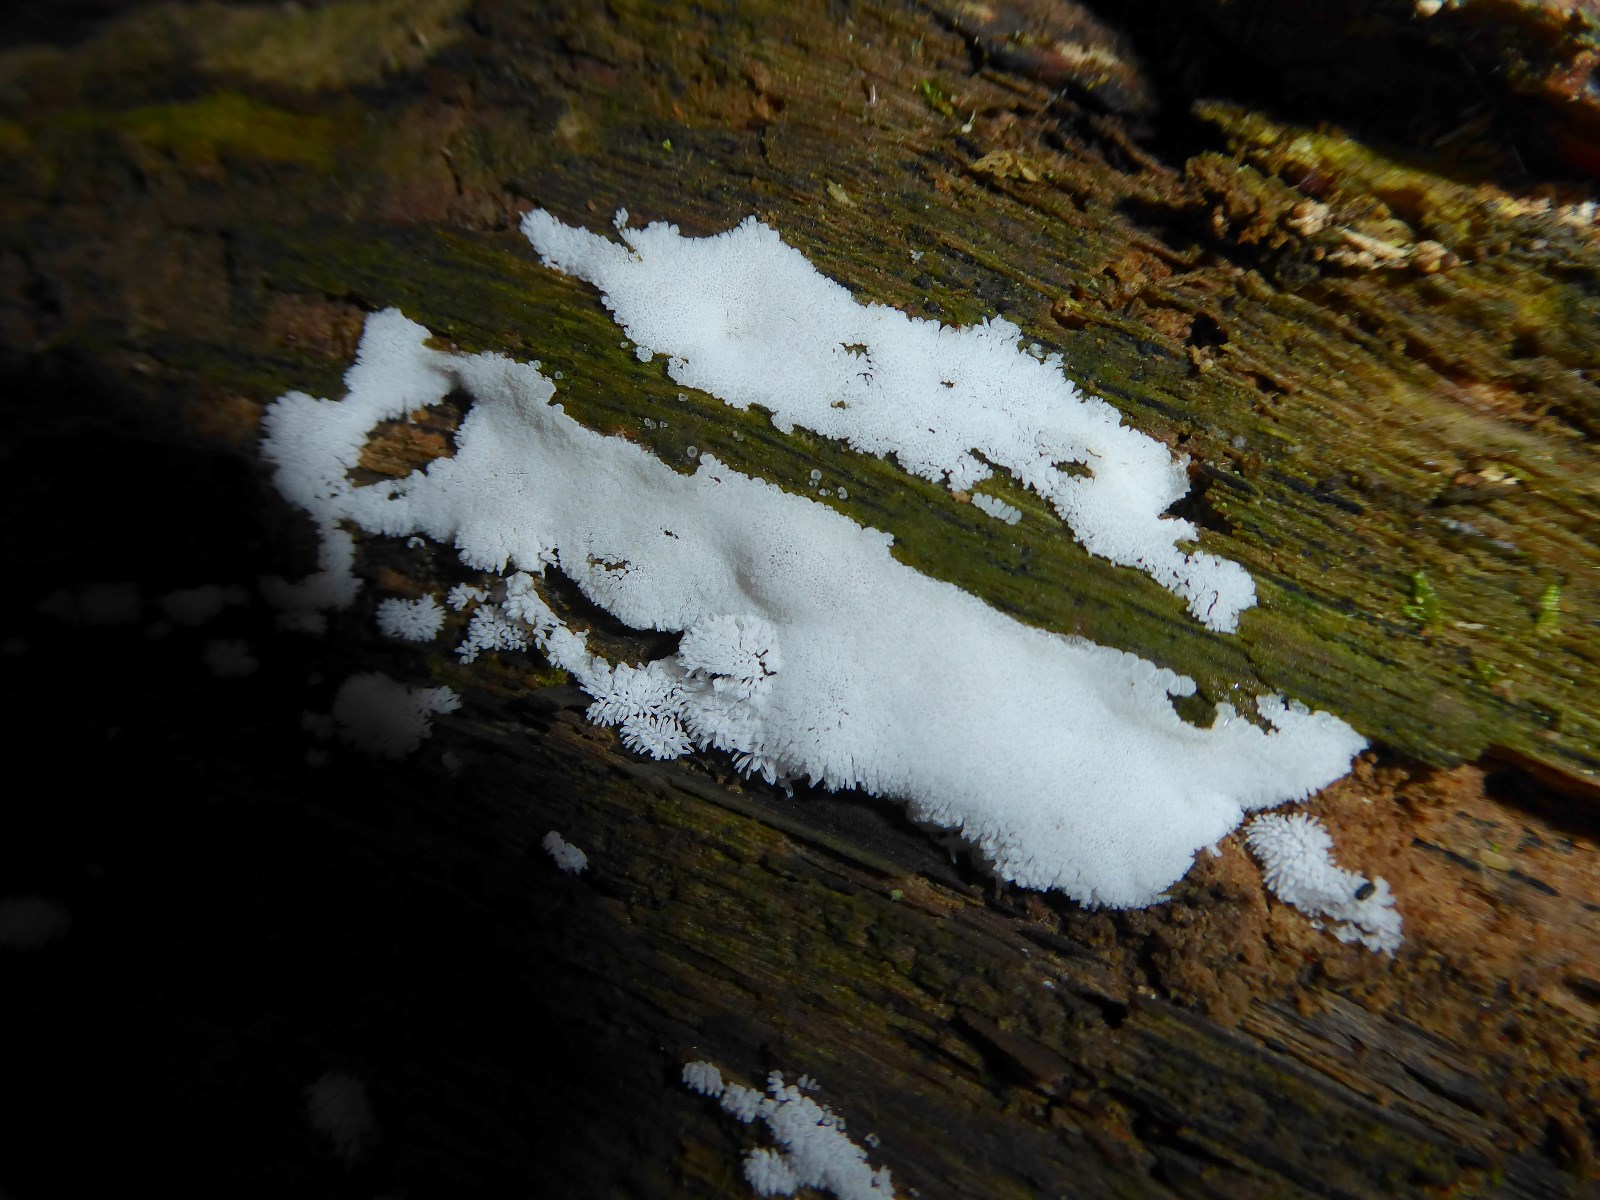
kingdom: Protozoa
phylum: Amoebozoa
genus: Ceratiomyxa
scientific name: Ceratiomyxa
